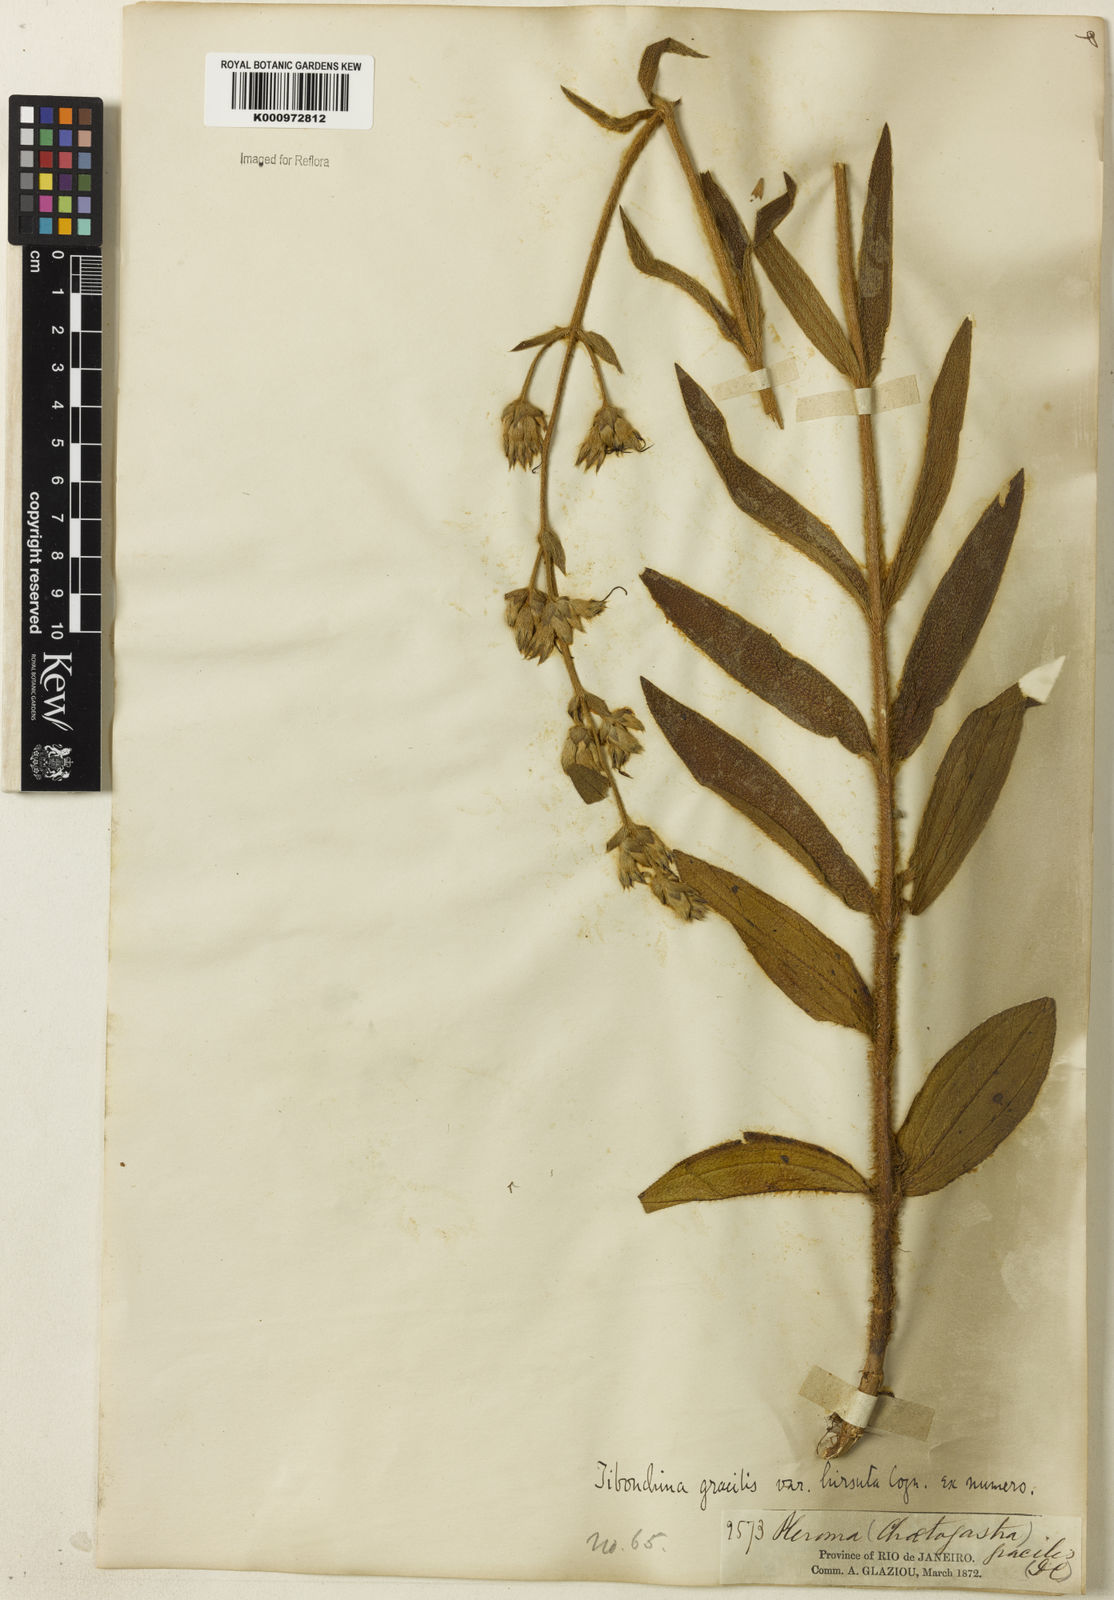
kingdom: Plantae
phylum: Tracheophyta
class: Magnoliopsida
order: Myrtales
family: Melastomataceae
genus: Chaetogastra
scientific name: Chaetogastra gracilis
